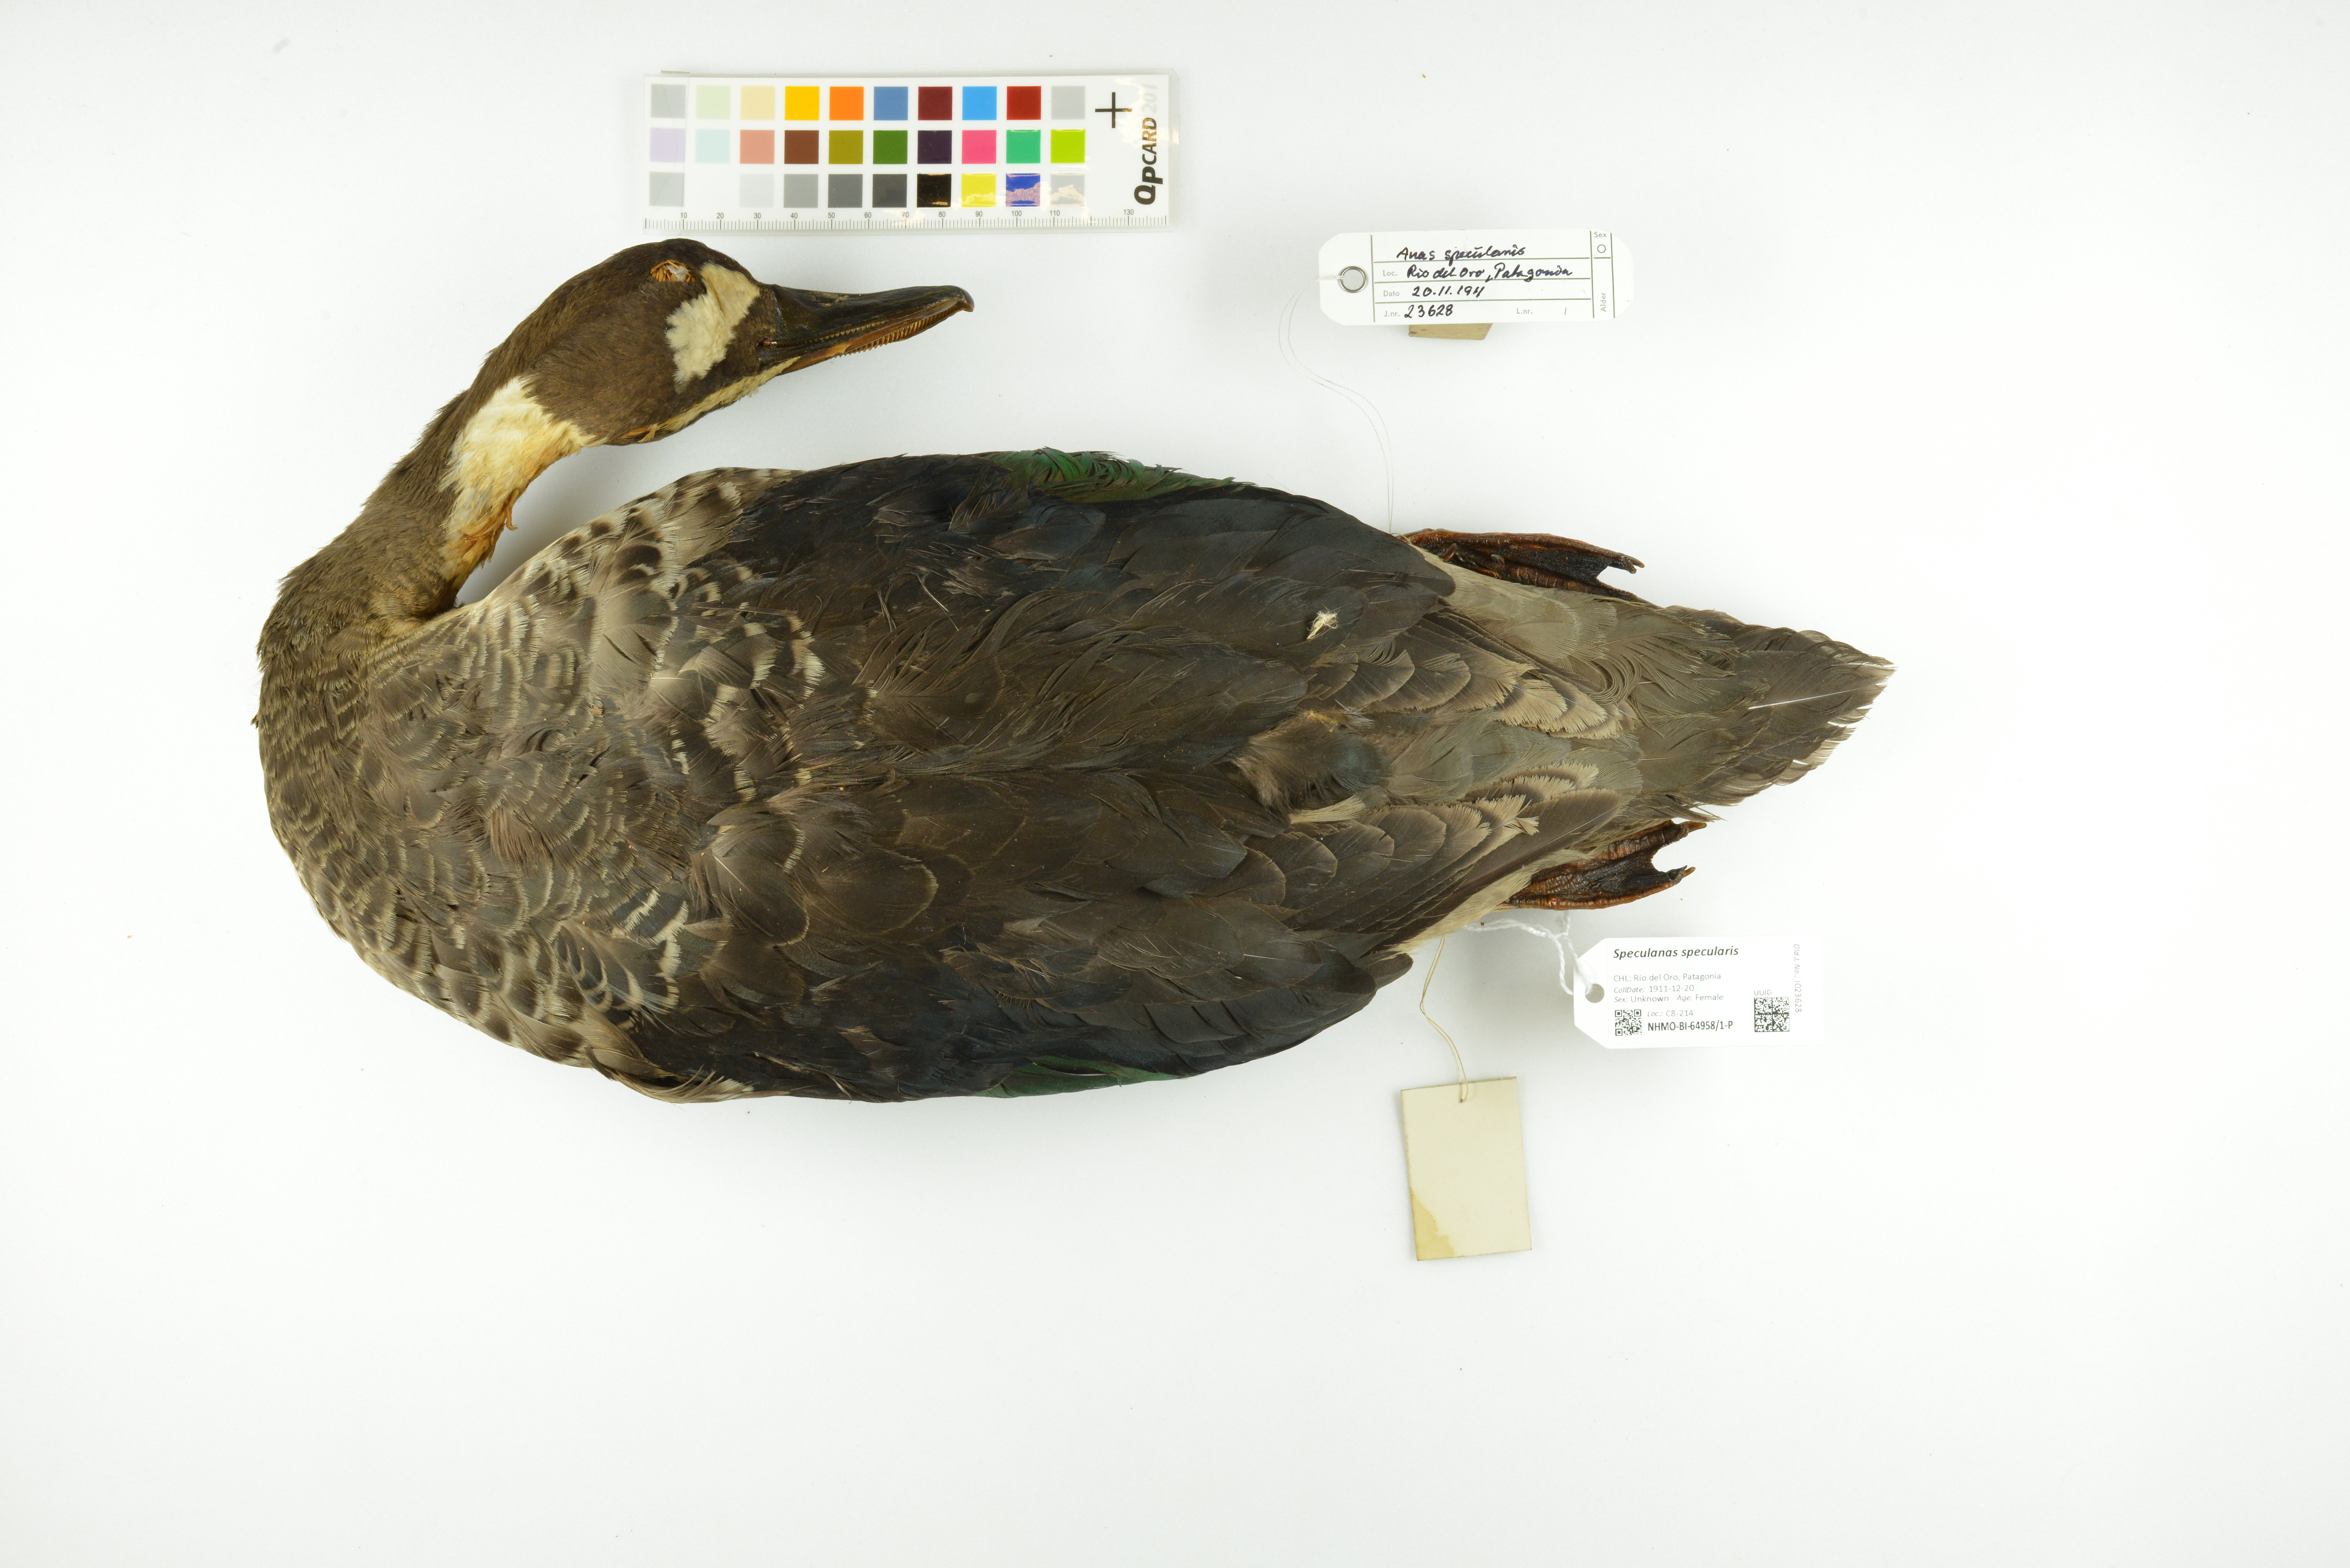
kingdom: Animalia
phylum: Chordata
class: Aves
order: Anseriformes
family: Anatidae
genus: Speculanas
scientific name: Speculanas specularis
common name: Bronze-winged duck
